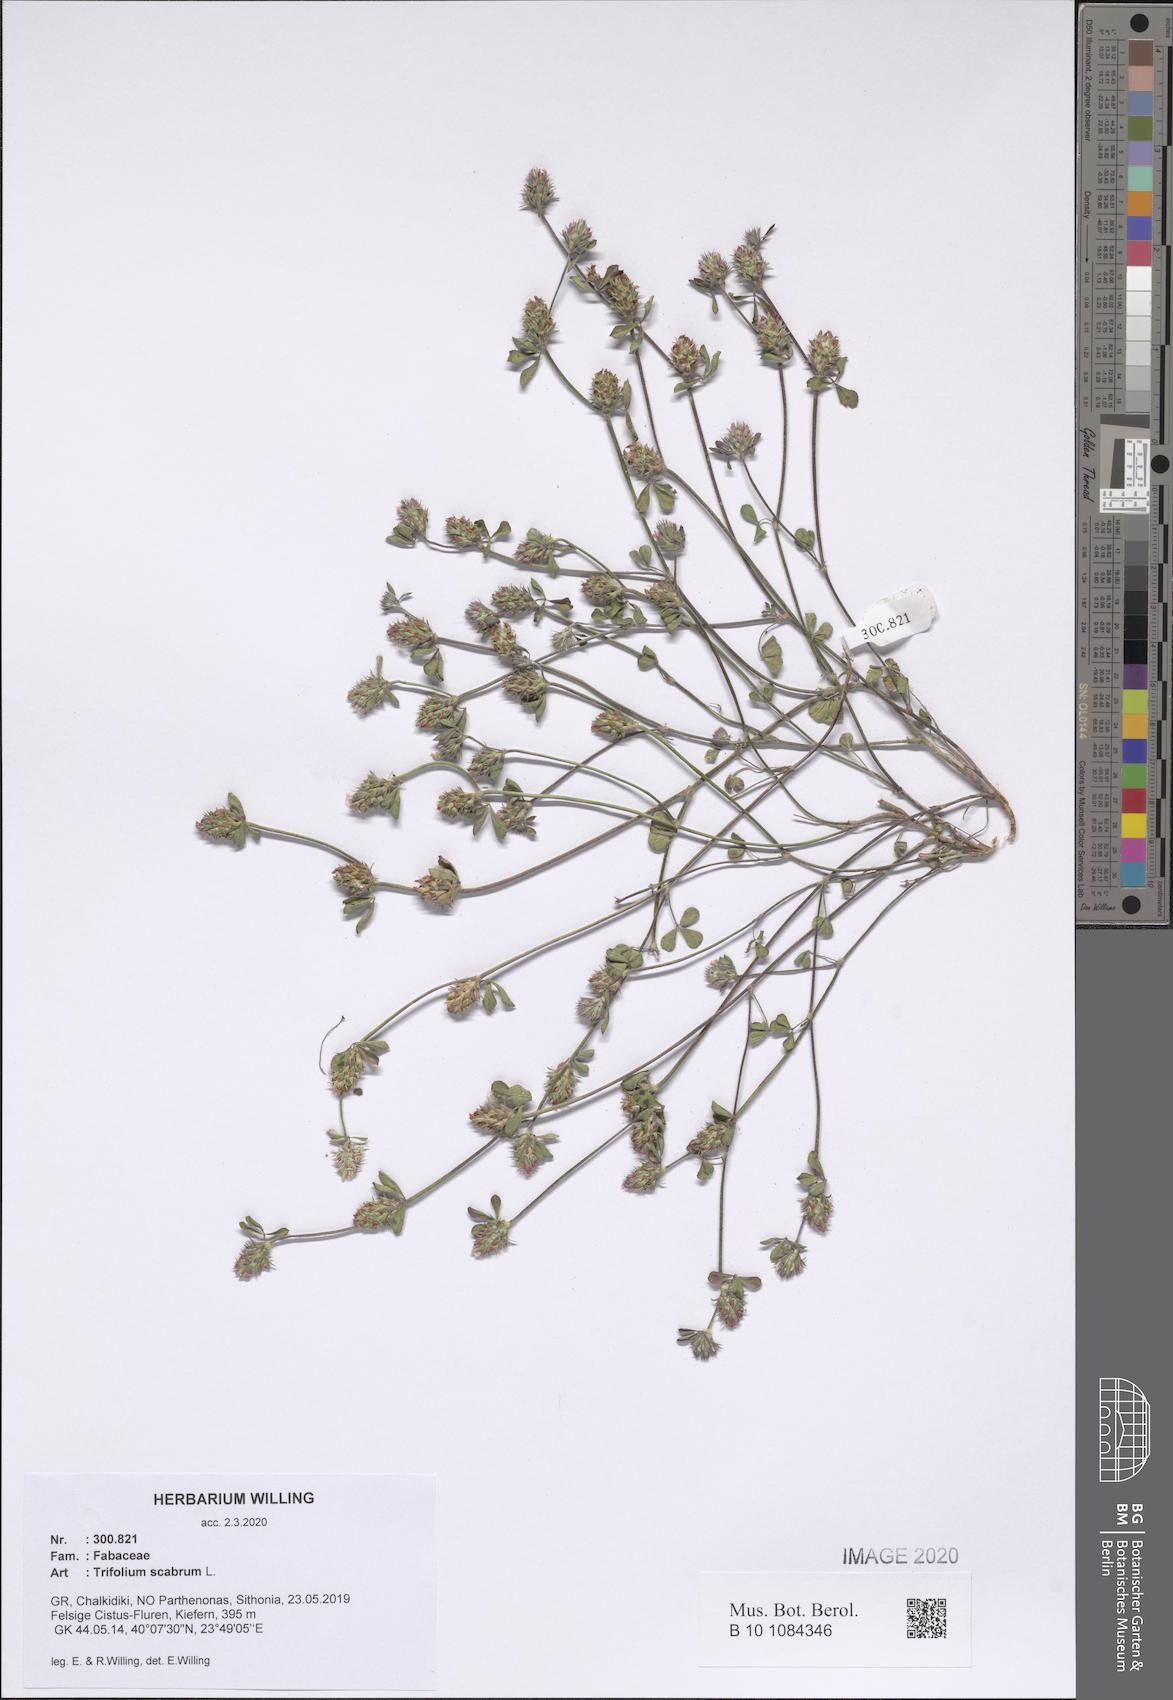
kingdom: Plantae
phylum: Tracheophyta
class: Magnoliopsida
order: Fabales
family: Fabaceae
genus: Trifolium
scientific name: Trifolium scabrum
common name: Rough clover
